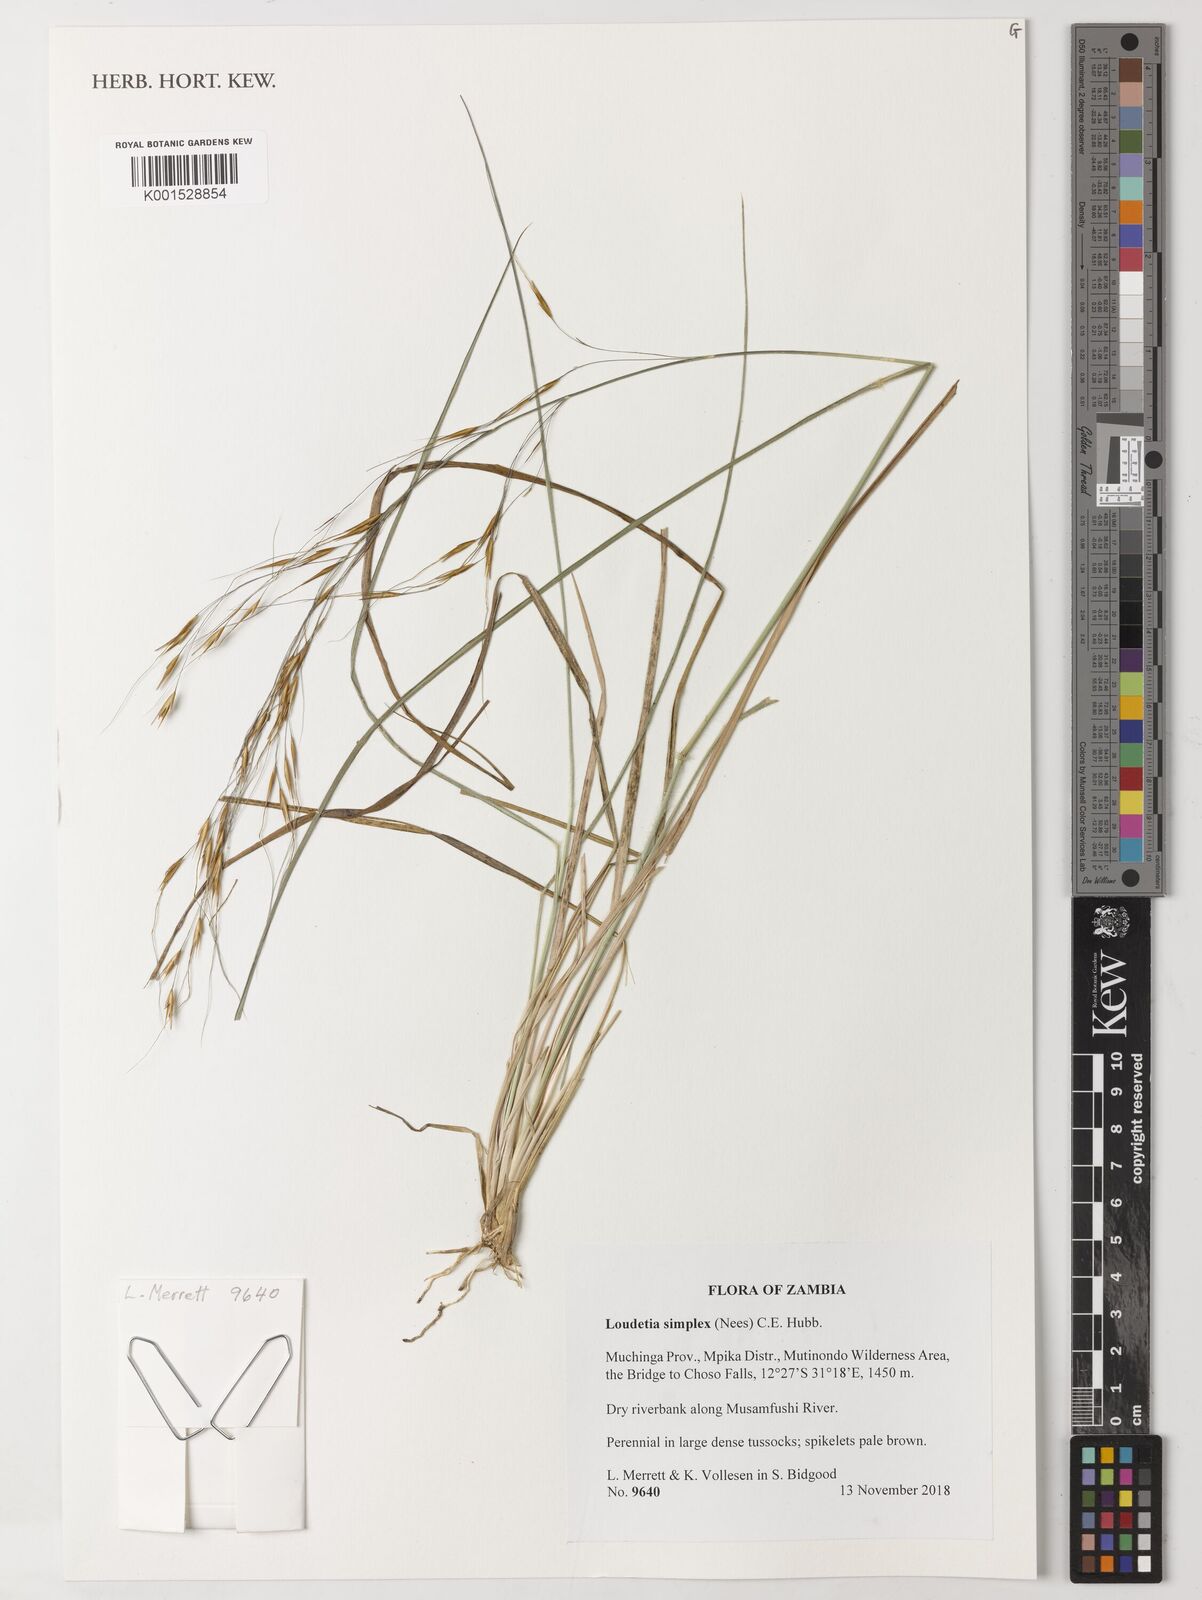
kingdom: Plantae
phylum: Tracheophyta
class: Liliopsida
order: Poales
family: Poaceae
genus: Loudetia
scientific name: Loudetia simplex
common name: Common russet grass
